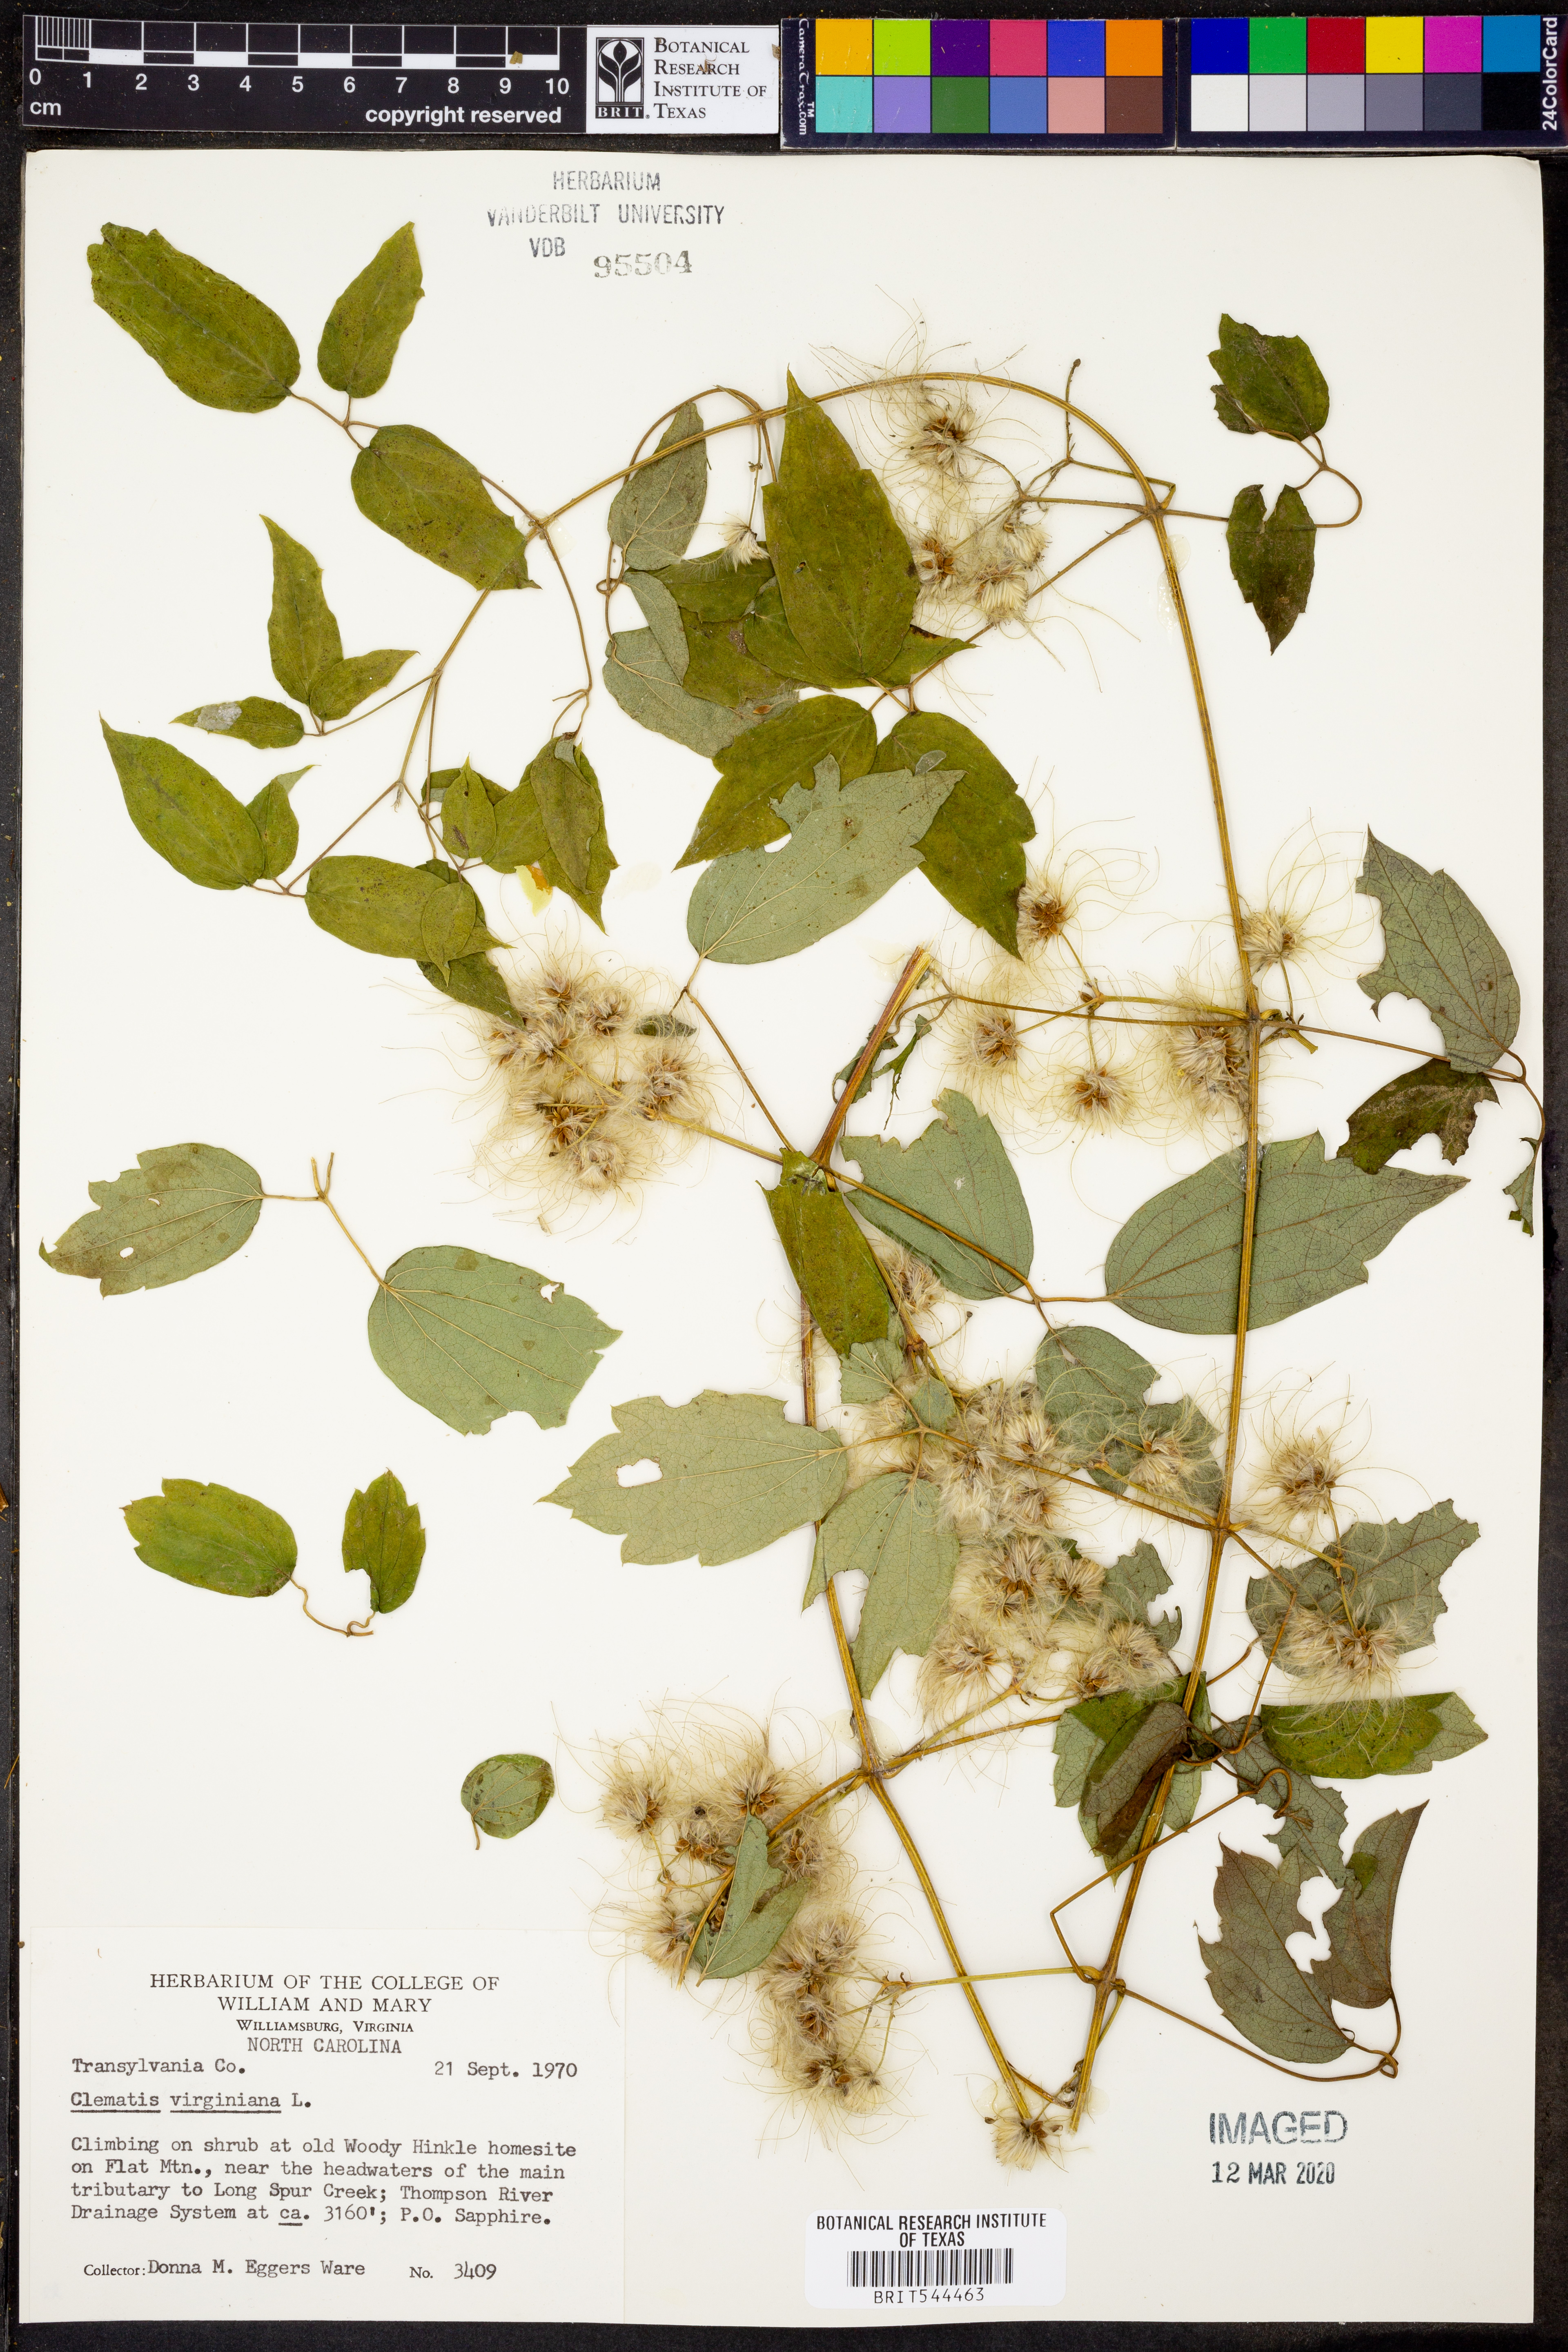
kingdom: Plantae
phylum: Tracheophyta
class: Magnoliopsida
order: Ranunculales
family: Ranunculaceae
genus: Clematis
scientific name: Clematis virginiana
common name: Virgin's-bower
